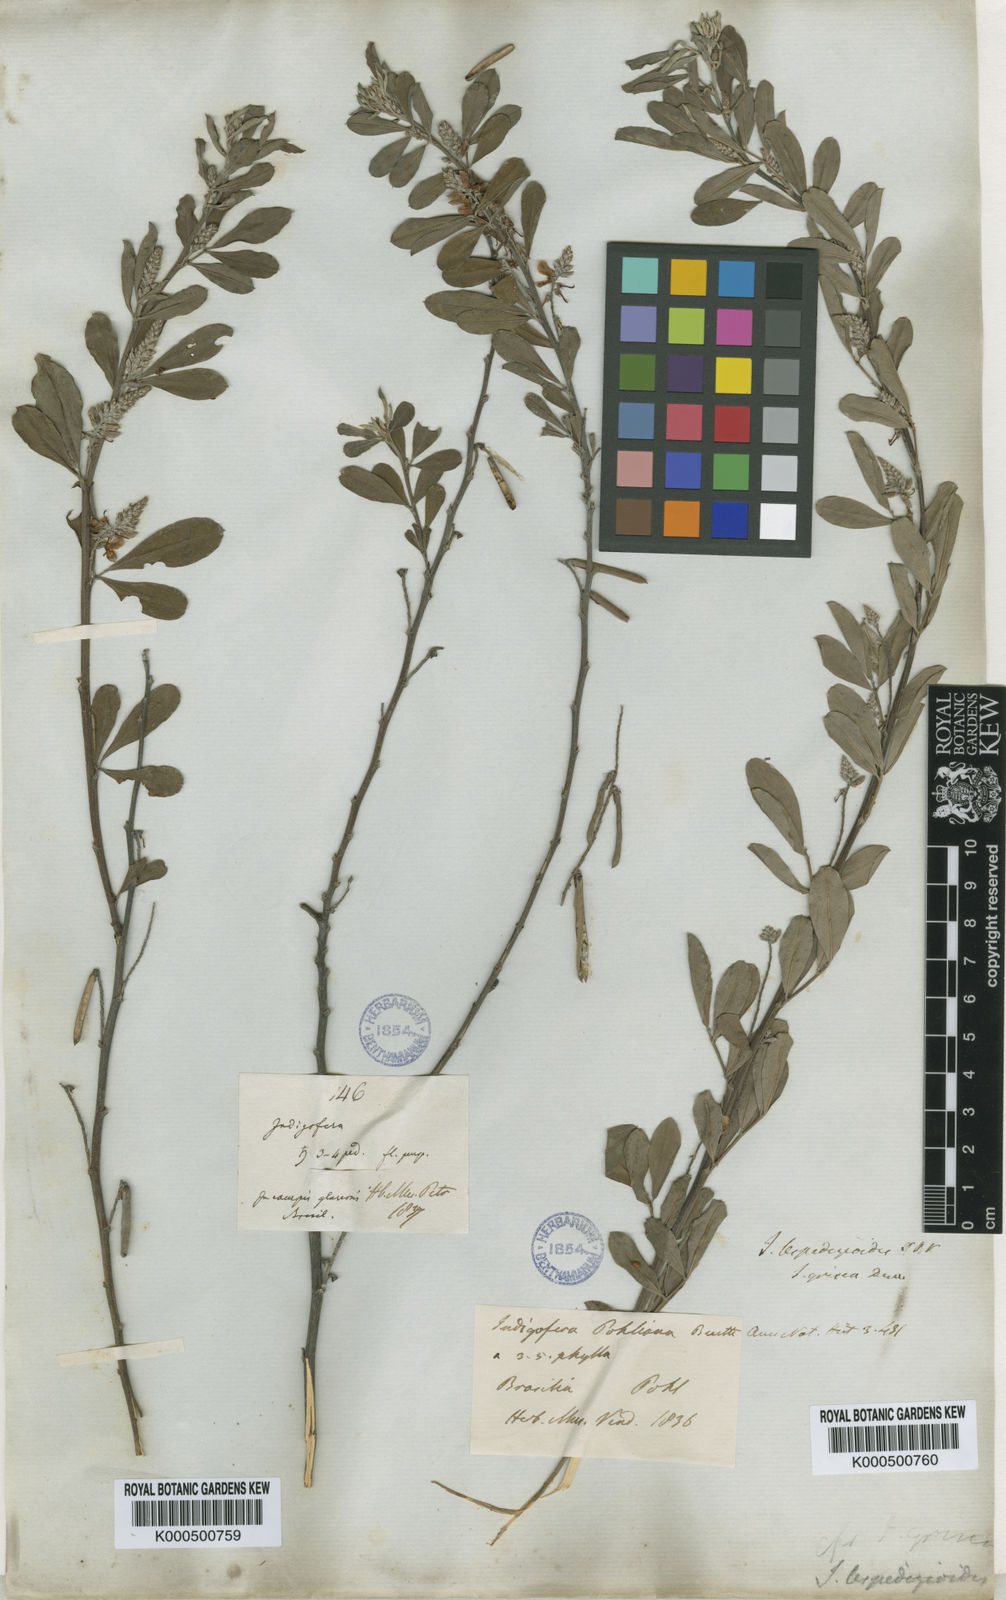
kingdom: Plantae
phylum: Tracheophyta
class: Magnoliopsida
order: Fabales
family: Fabaceae
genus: Indigofera
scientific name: Indigofera lespedezioides
